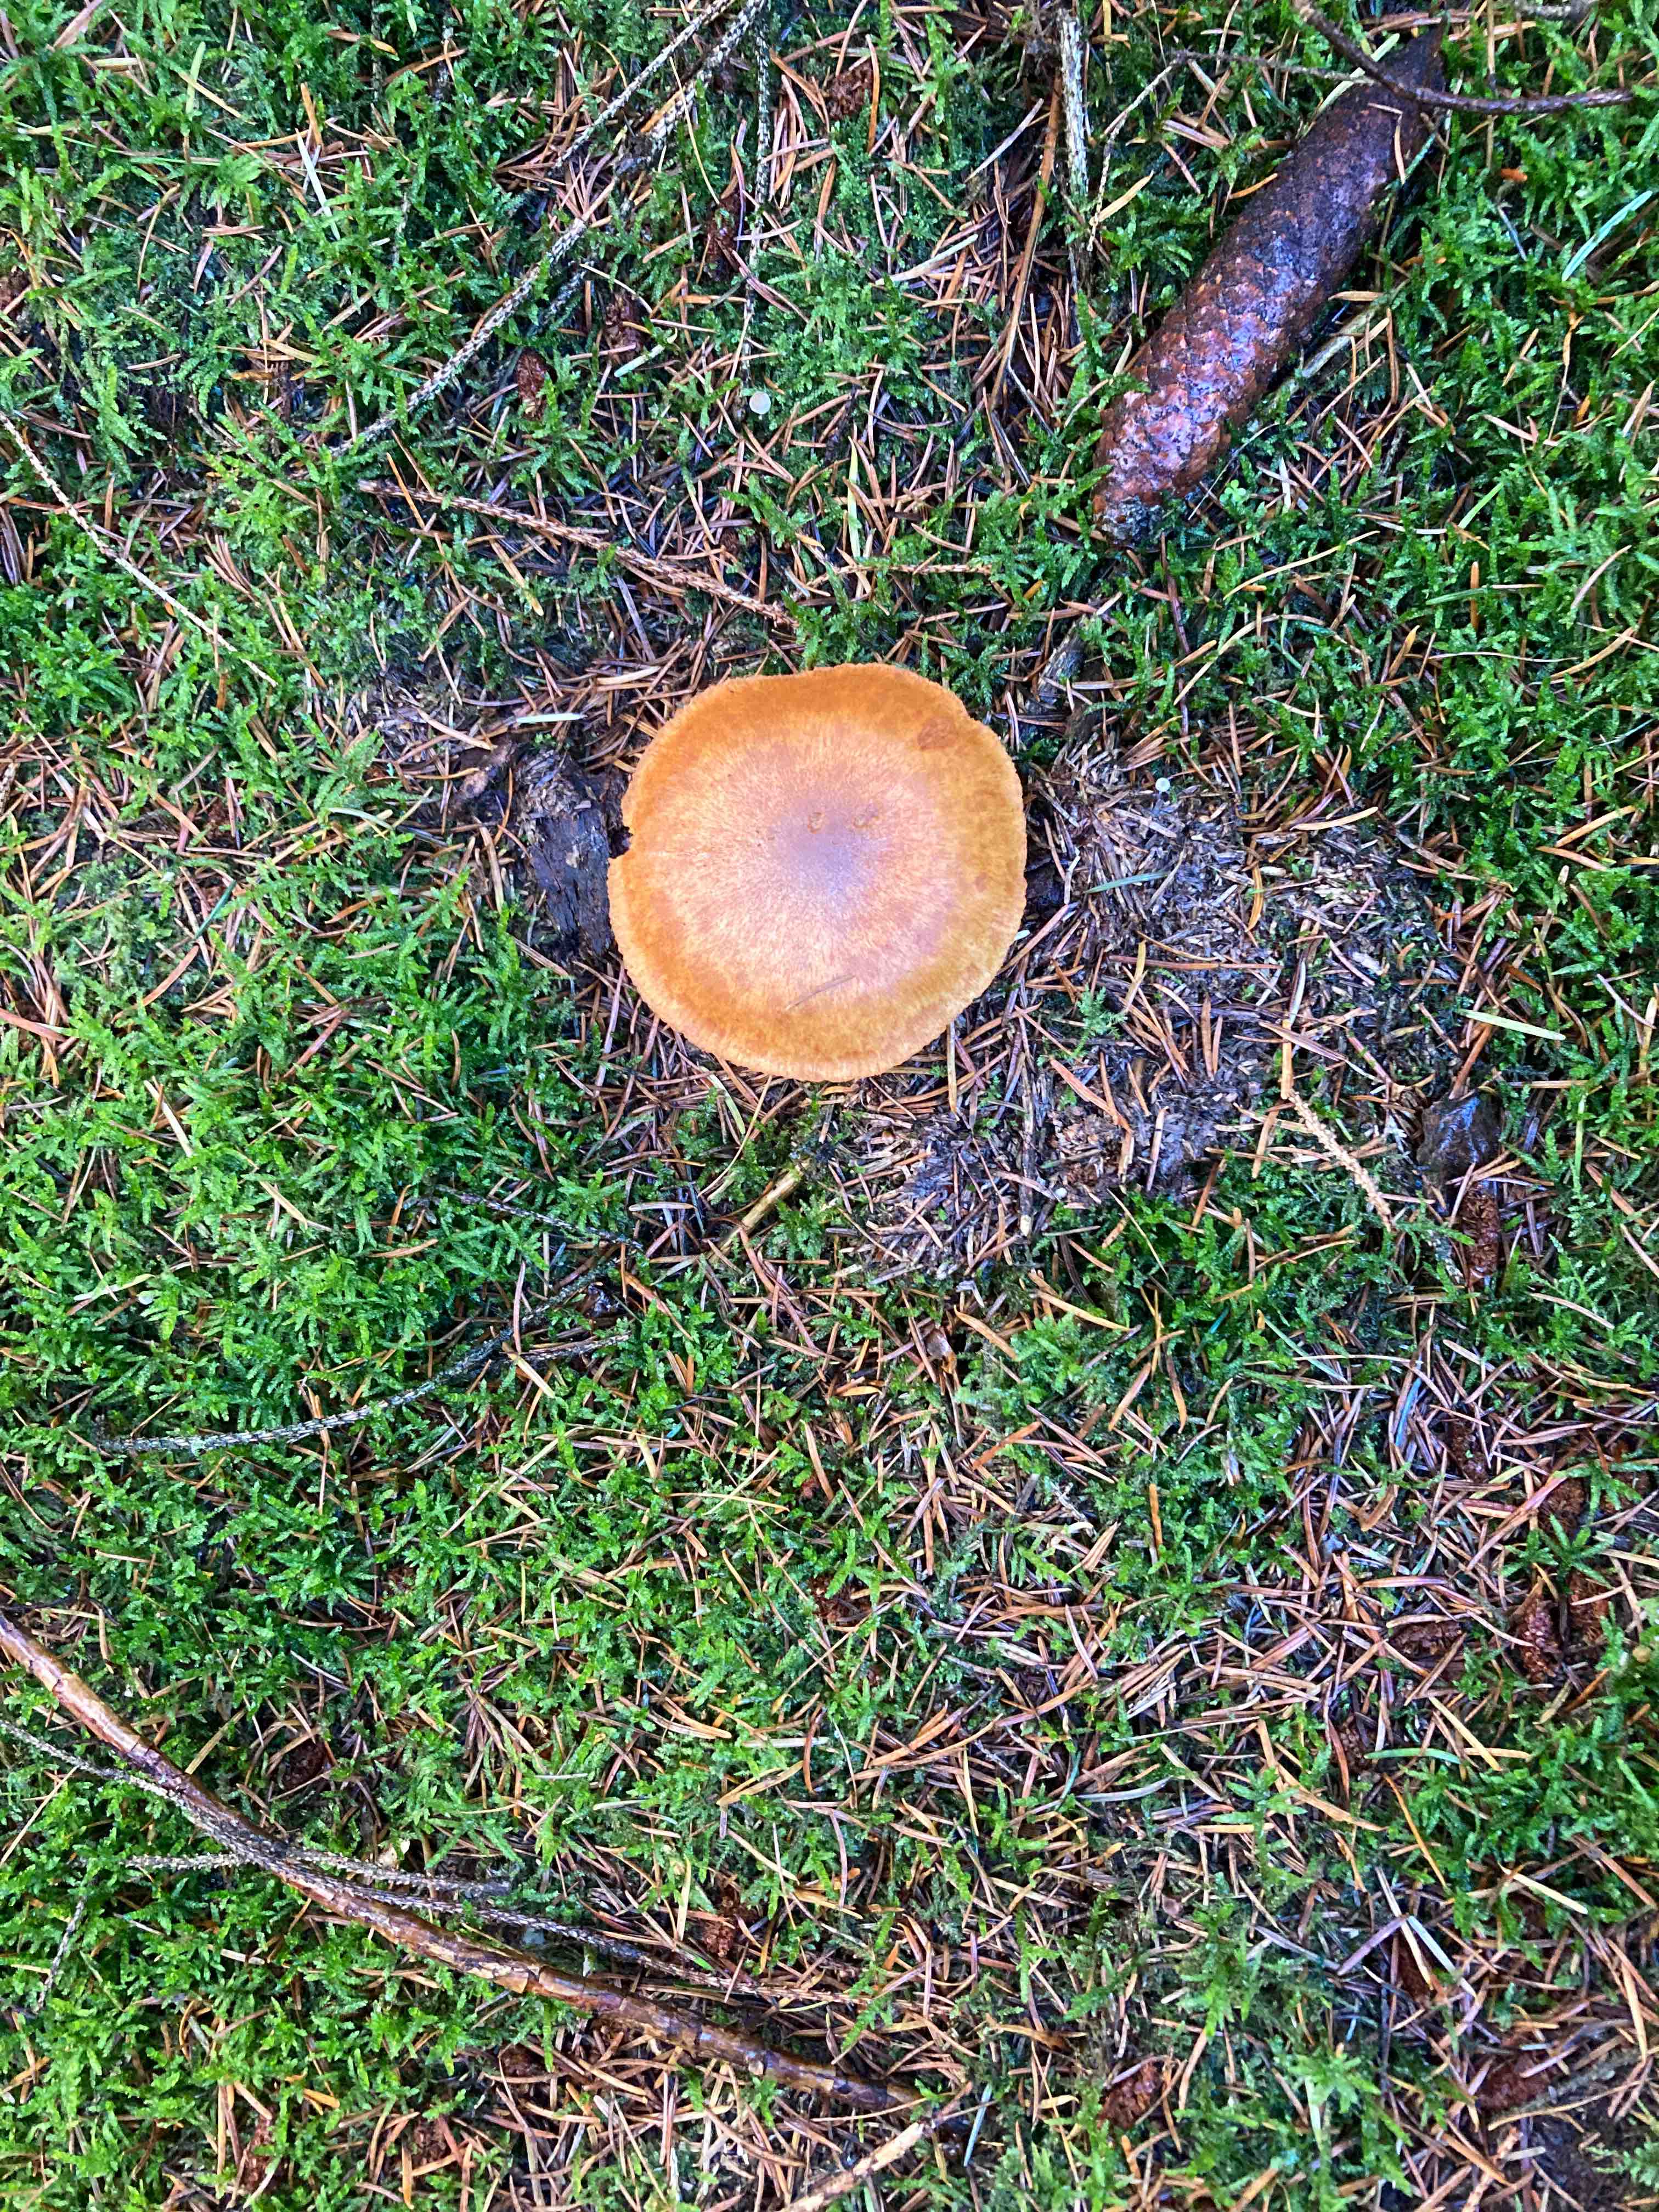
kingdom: Plantae
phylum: Bryophyta
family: Agaricomycetidae
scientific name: Agaricomycetidae
